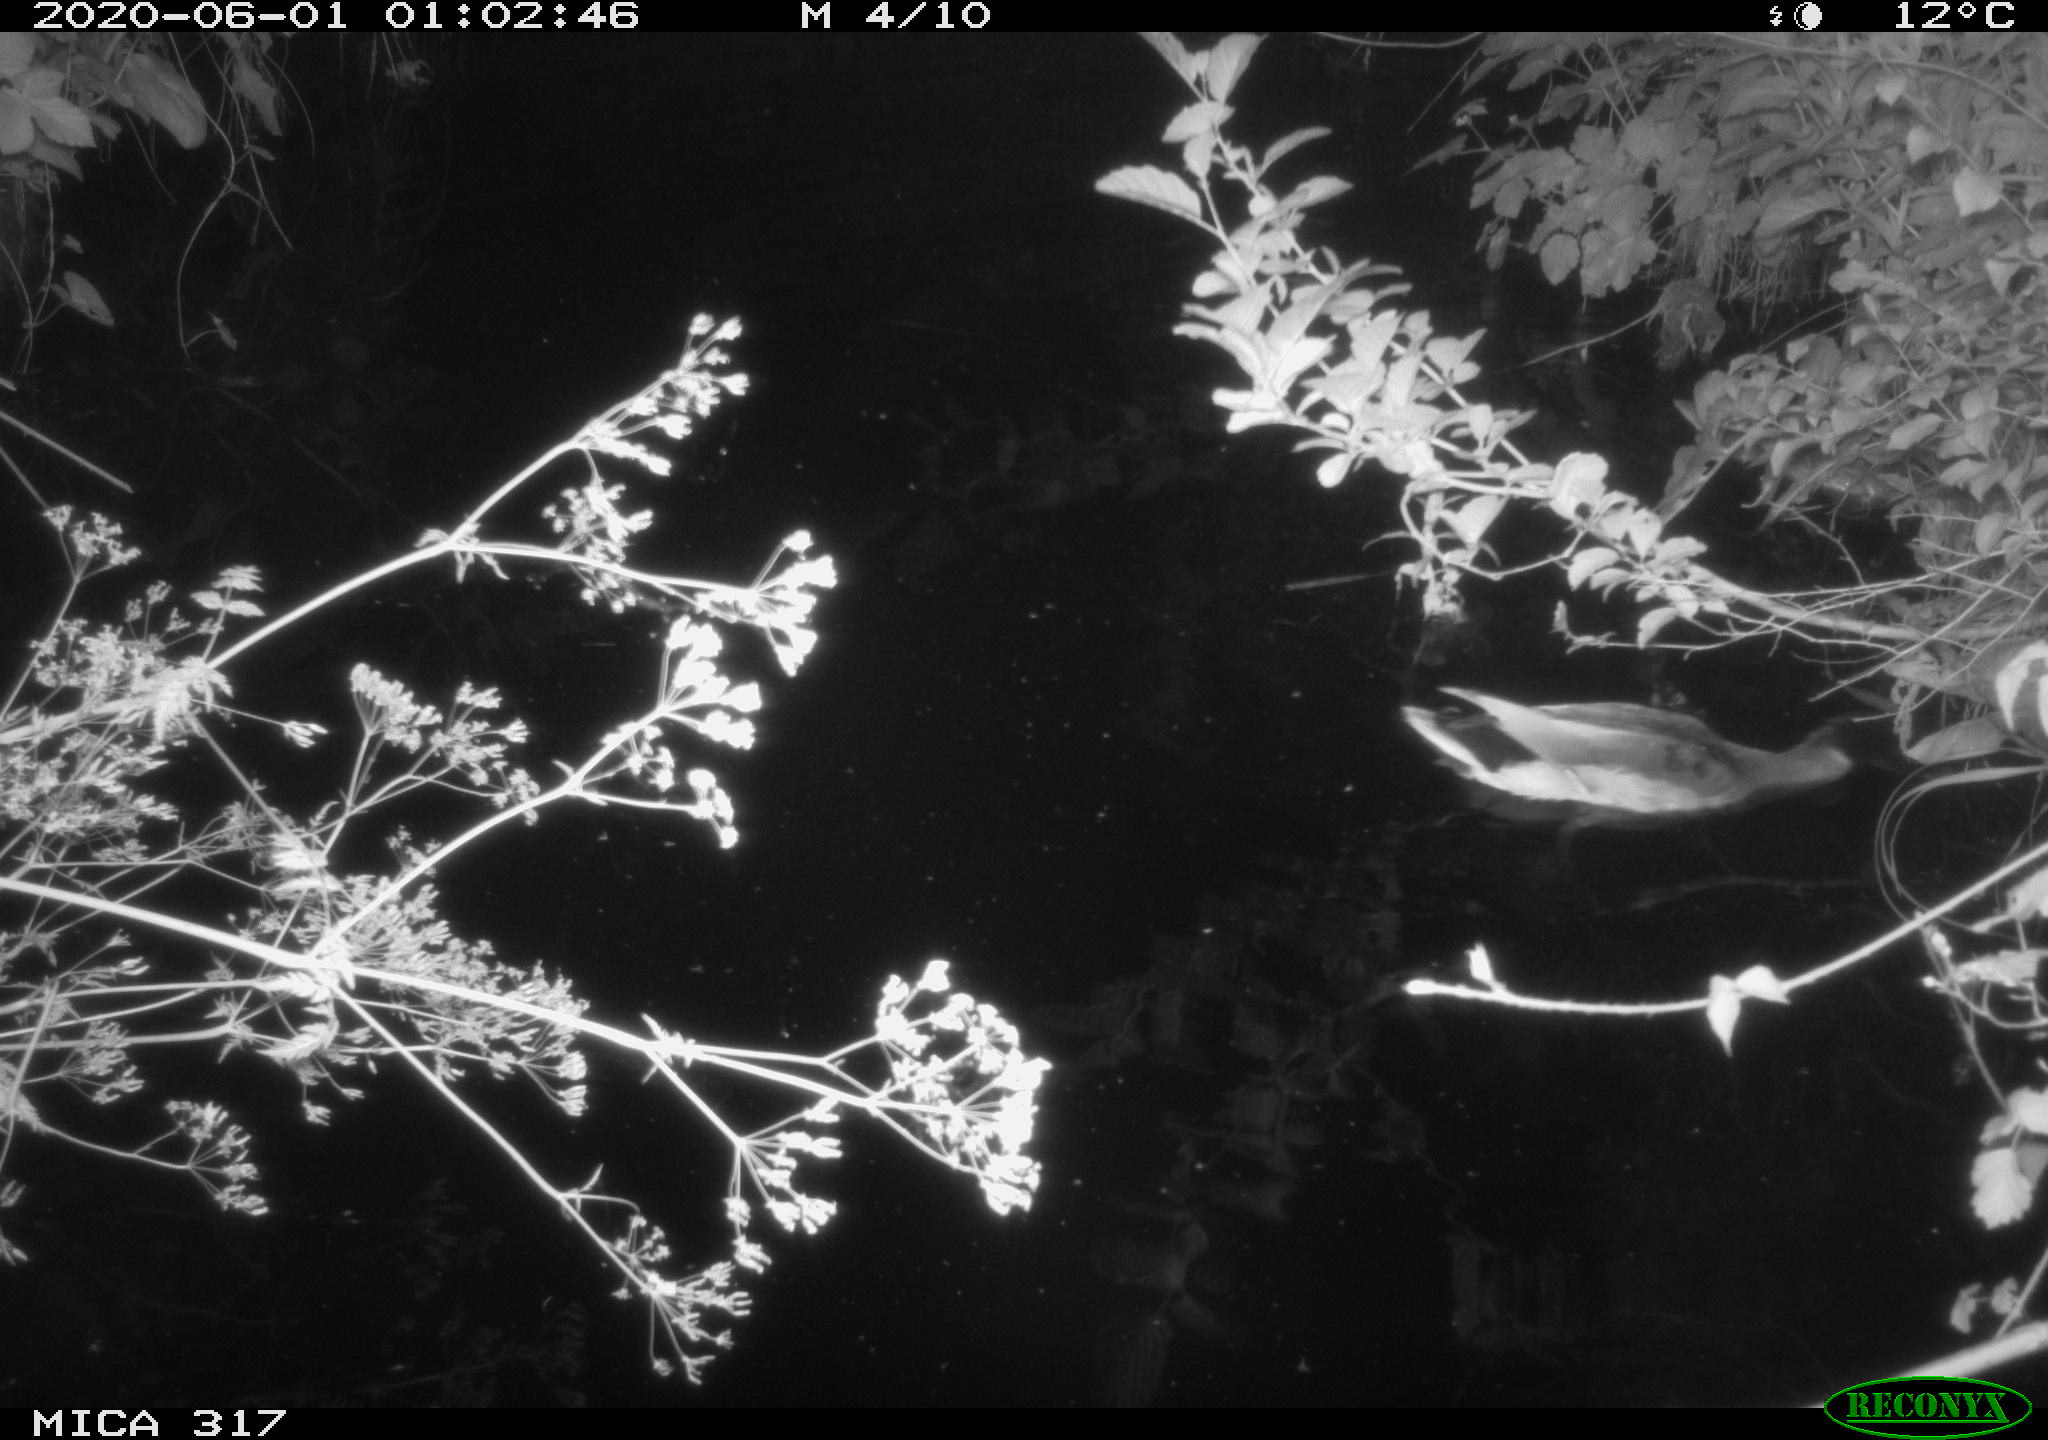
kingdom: Animalia
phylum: Chordata
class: Aves
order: Anseriformes
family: Anatidae
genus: Anas
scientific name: Anas platyrhynchos
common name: Mallard
